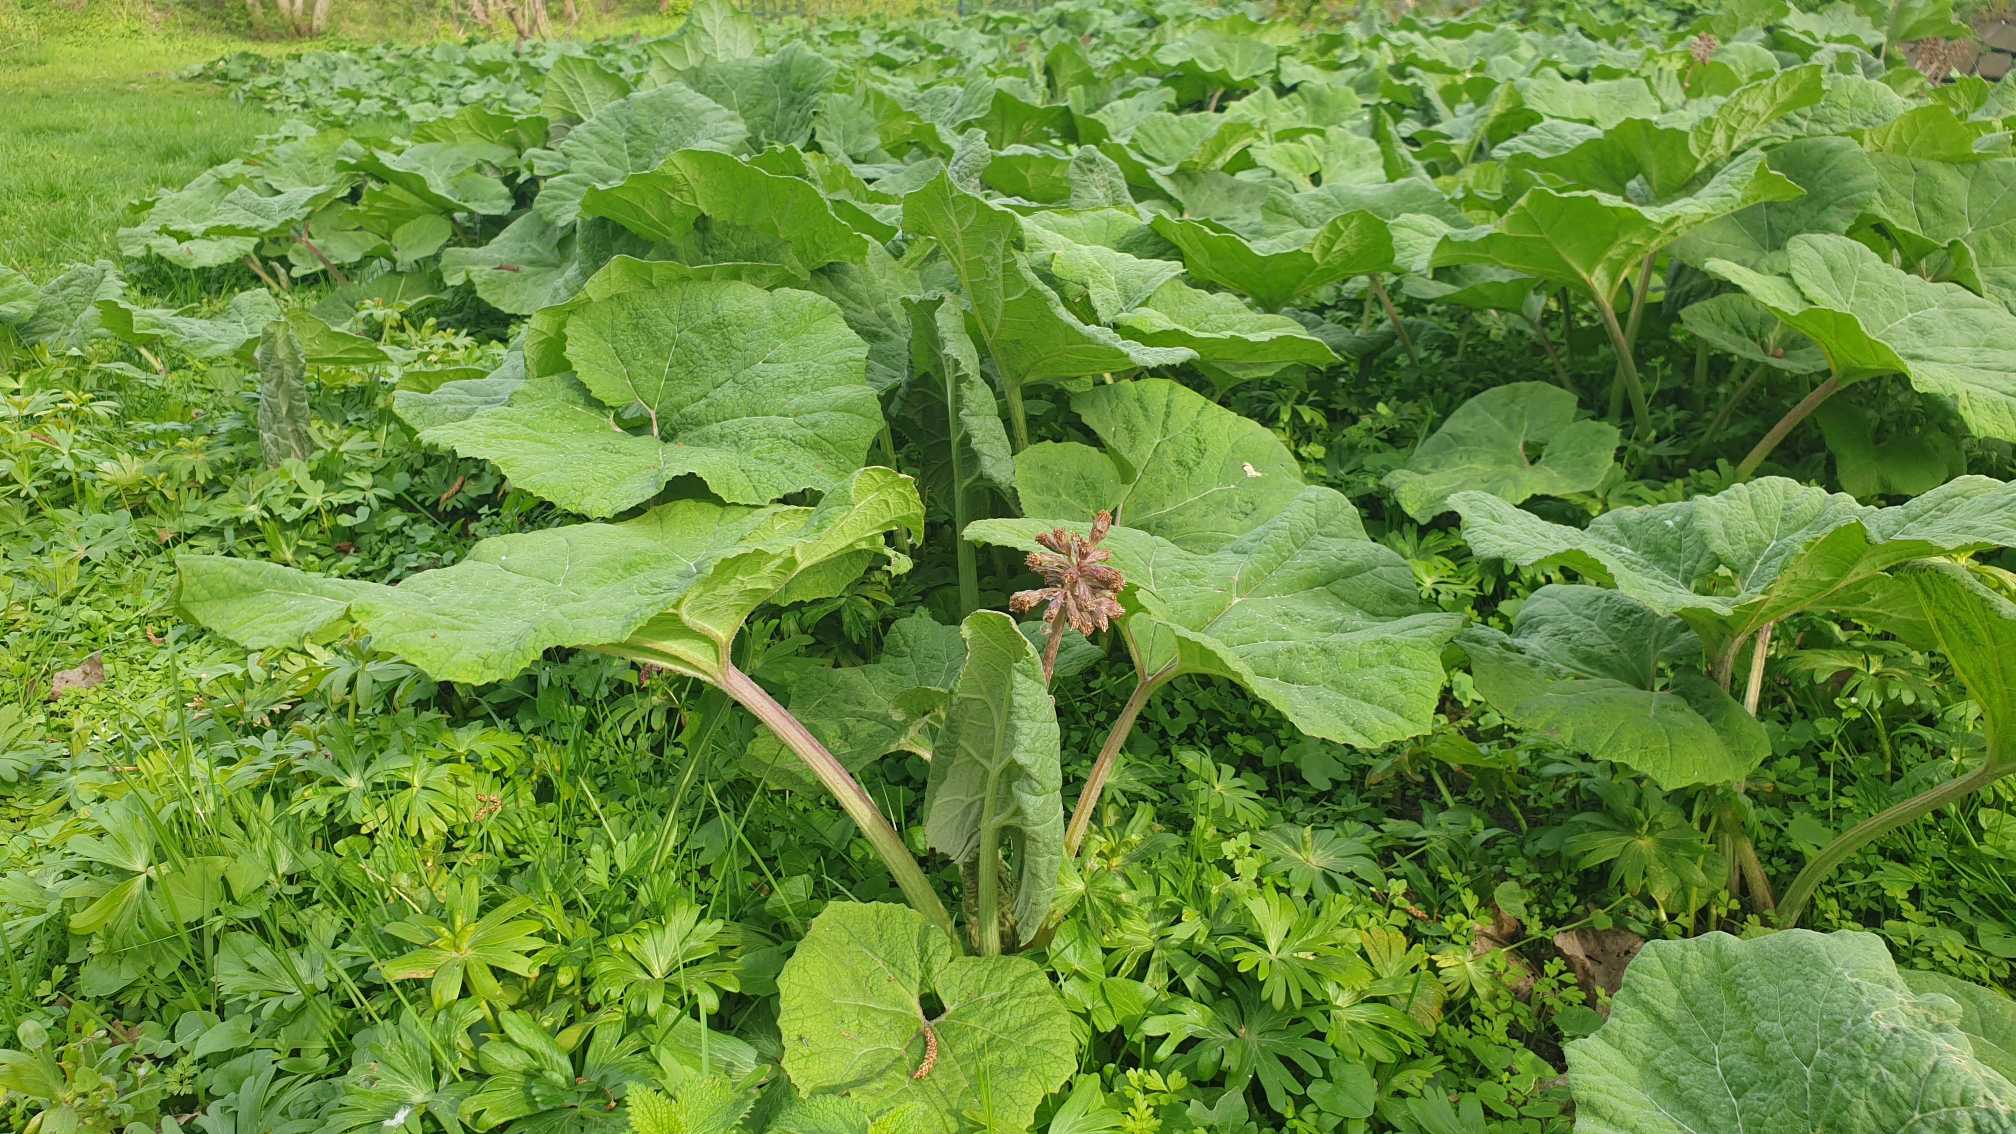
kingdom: Plantae
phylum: Tracheophyta
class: Magnoliopsida
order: Asterales
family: Asteraceae
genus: Petasites
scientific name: Petasites hybridus
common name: Rød hestehov
